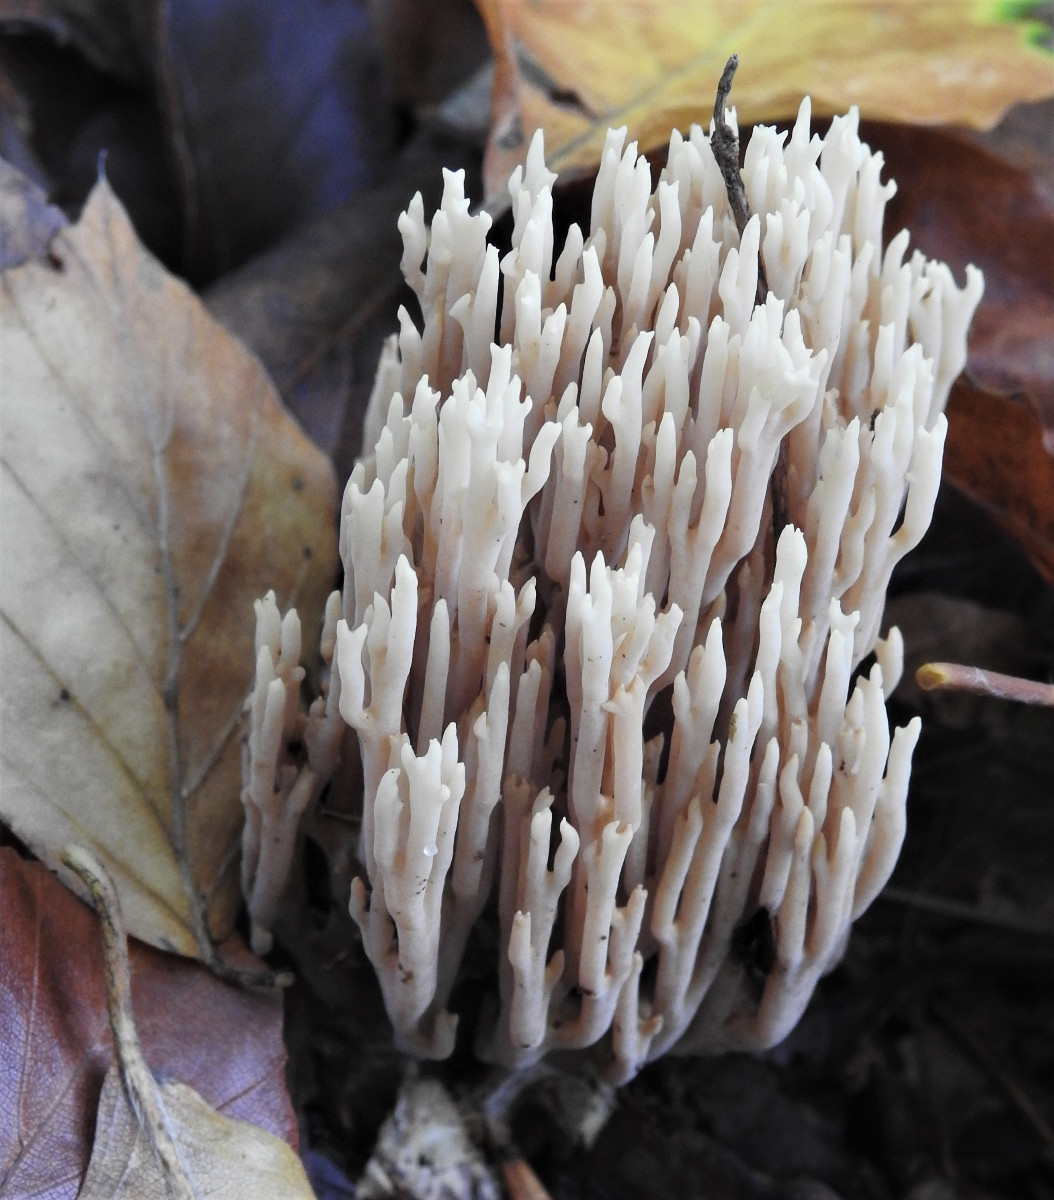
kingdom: Fungi
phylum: Basidiomycota
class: Agaricomycetes
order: Gomphales
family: Gomphaceae
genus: Ramaria
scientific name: Ramaria stricta
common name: rank koralsvamp
